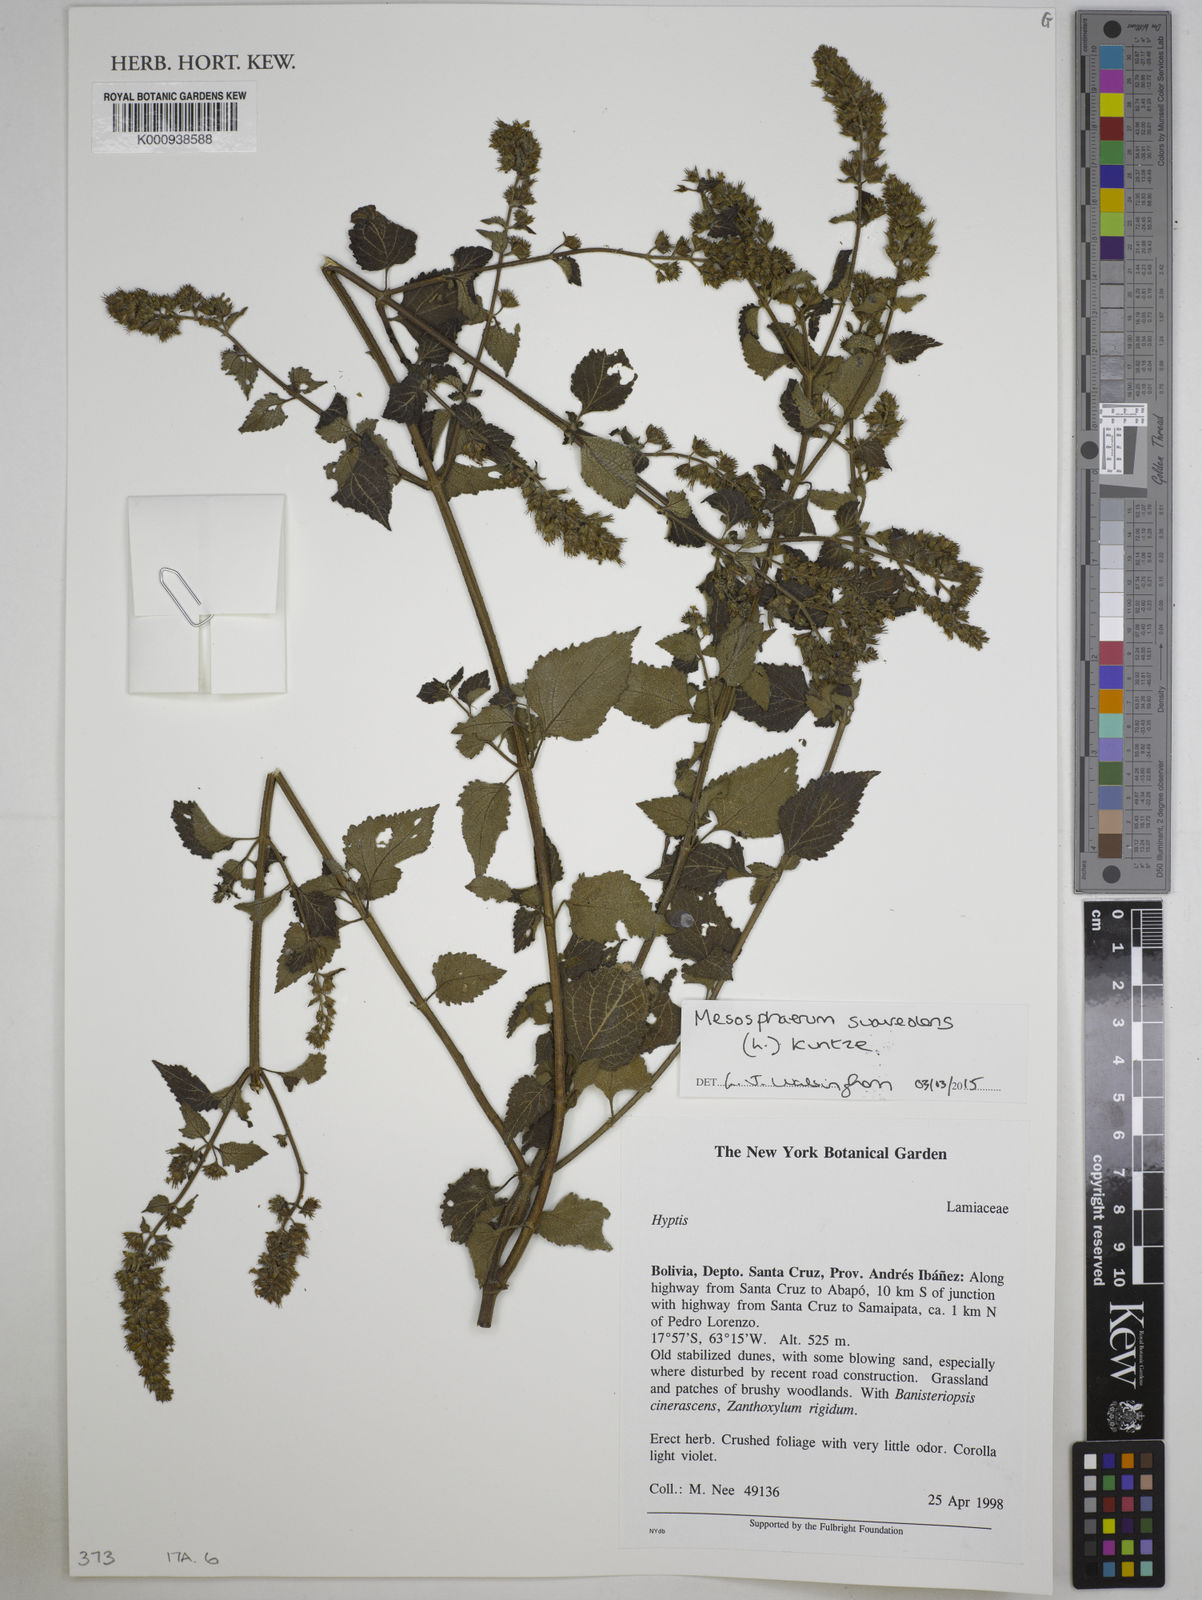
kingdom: Plantae
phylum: Tracheophyta
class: Magnoliopsida
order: Lamiales
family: Lamiaceae
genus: Mesosphaerum
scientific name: Mesosphaerum suaveolens
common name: Pignut
